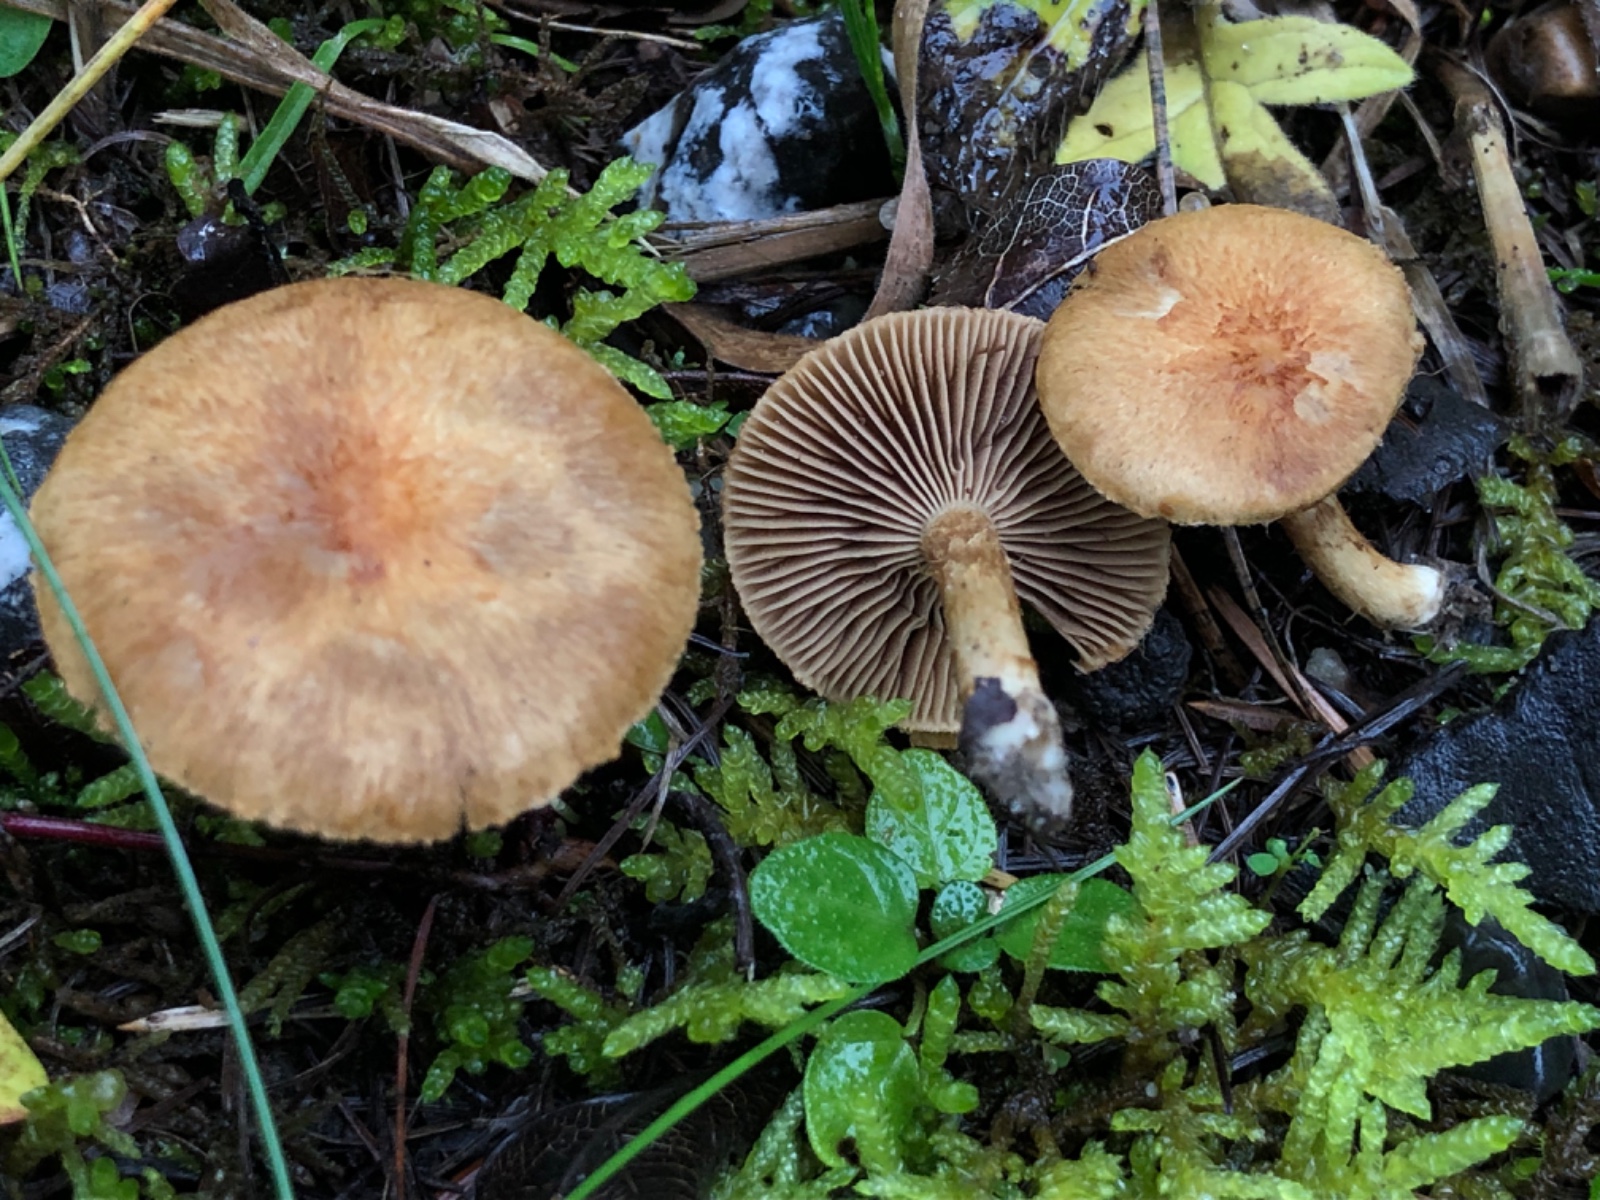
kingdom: Fungi
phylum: Basidiomycota
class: Agaricomycetes
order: Agaricales
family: Inocybaceae
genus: Mallocybe
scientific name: Mallocybe
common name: Trævlhat
